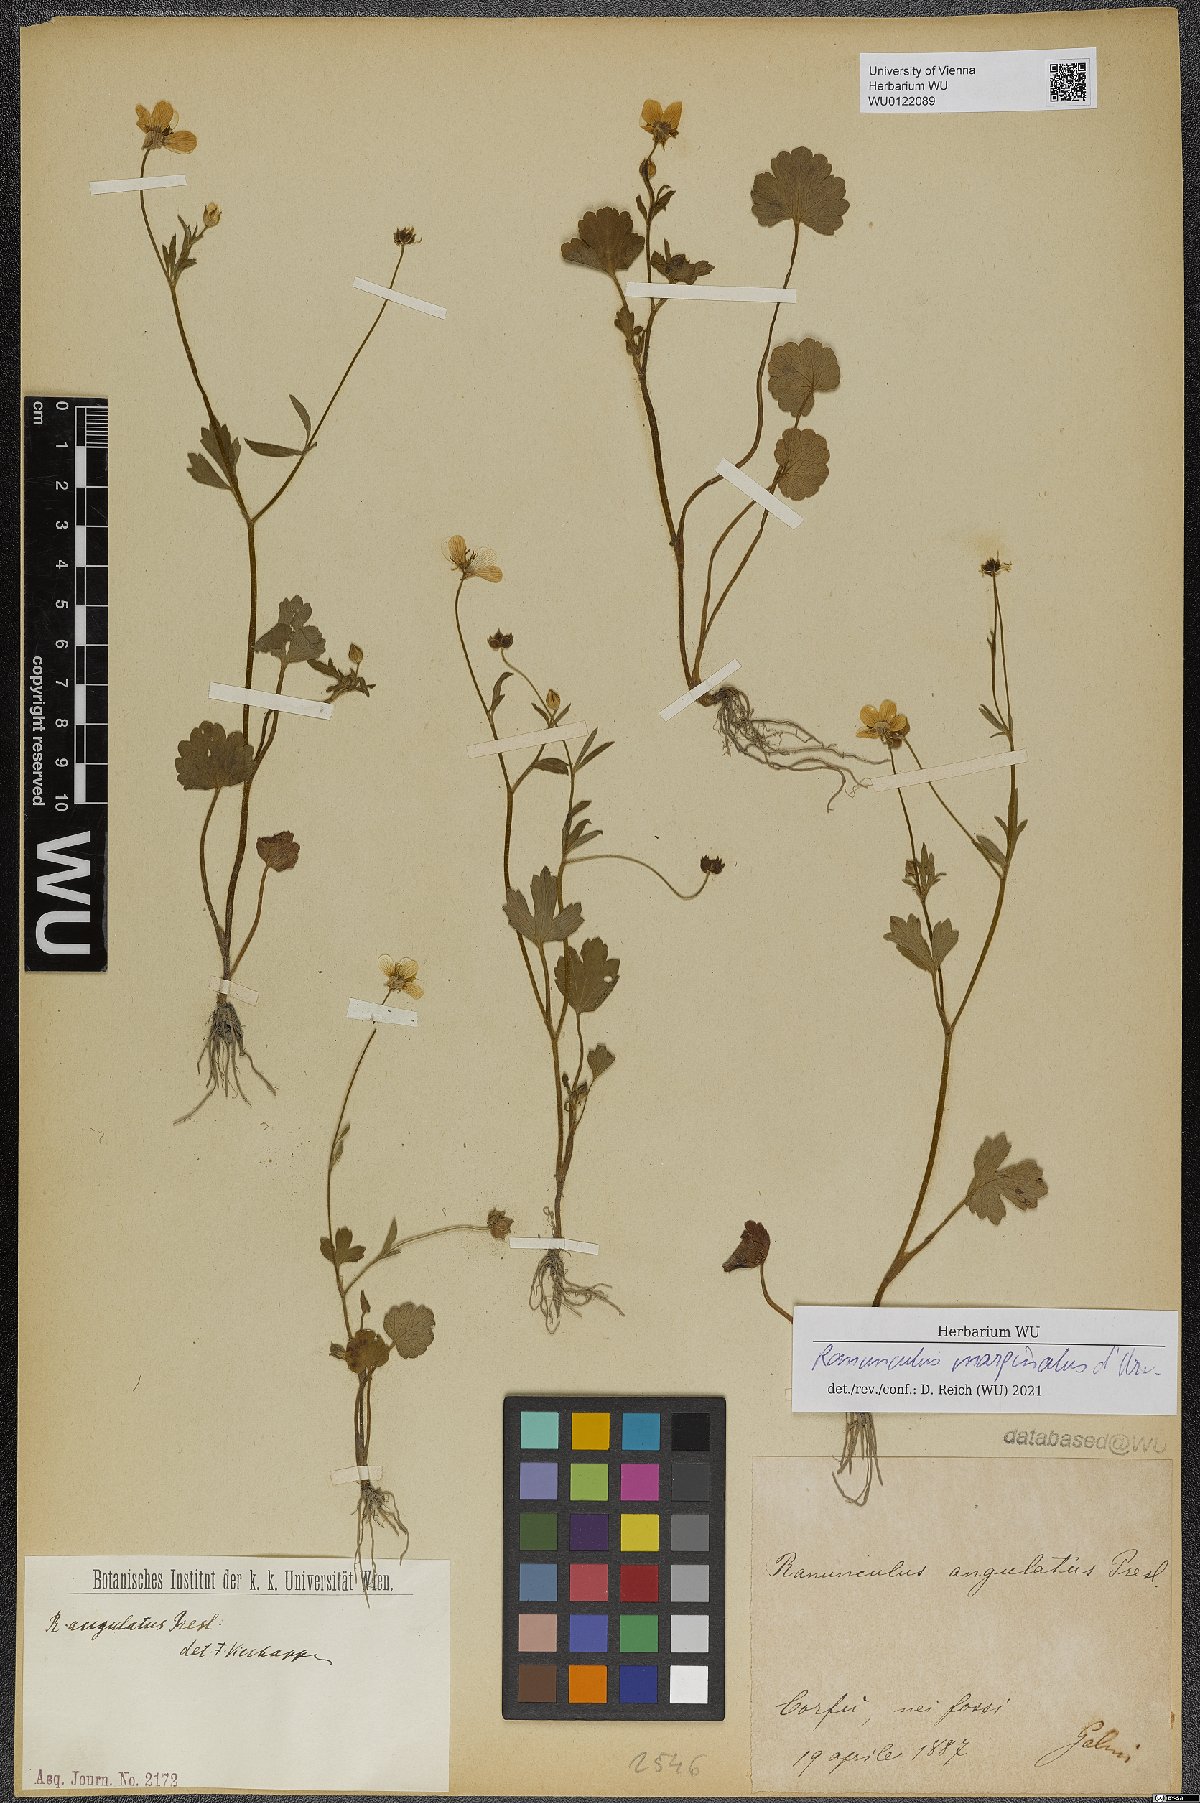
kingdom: Plantae
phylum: Tracheophyta
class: Magnoliopsida
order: Ranunculales
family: Ranunculaceae
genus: Ranunculus
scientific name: Ranunculus marginatus
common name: St. martin's buttercup
